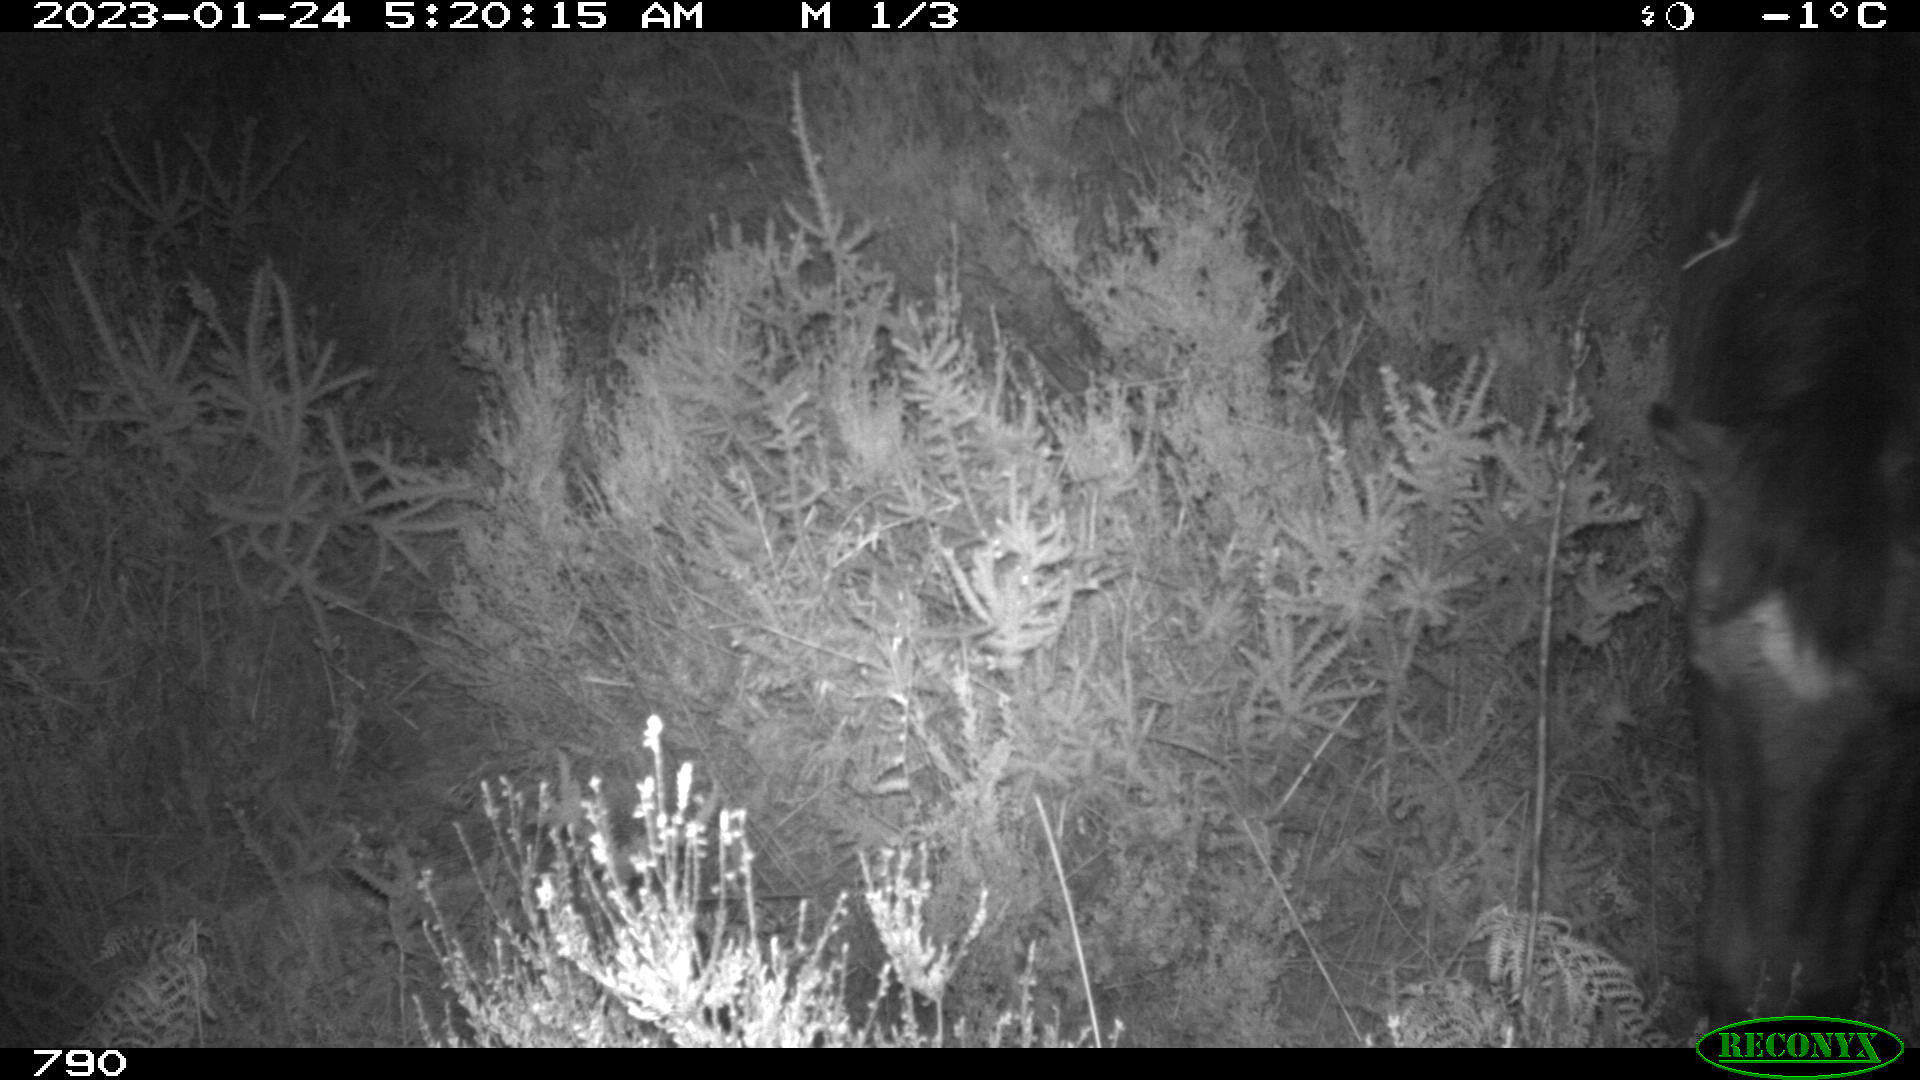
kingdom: Animalia
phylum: Chordata
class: Mammalia
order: Perissodactyla
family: Equidae
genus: Equus
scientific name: Equus caballus
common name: Horse
